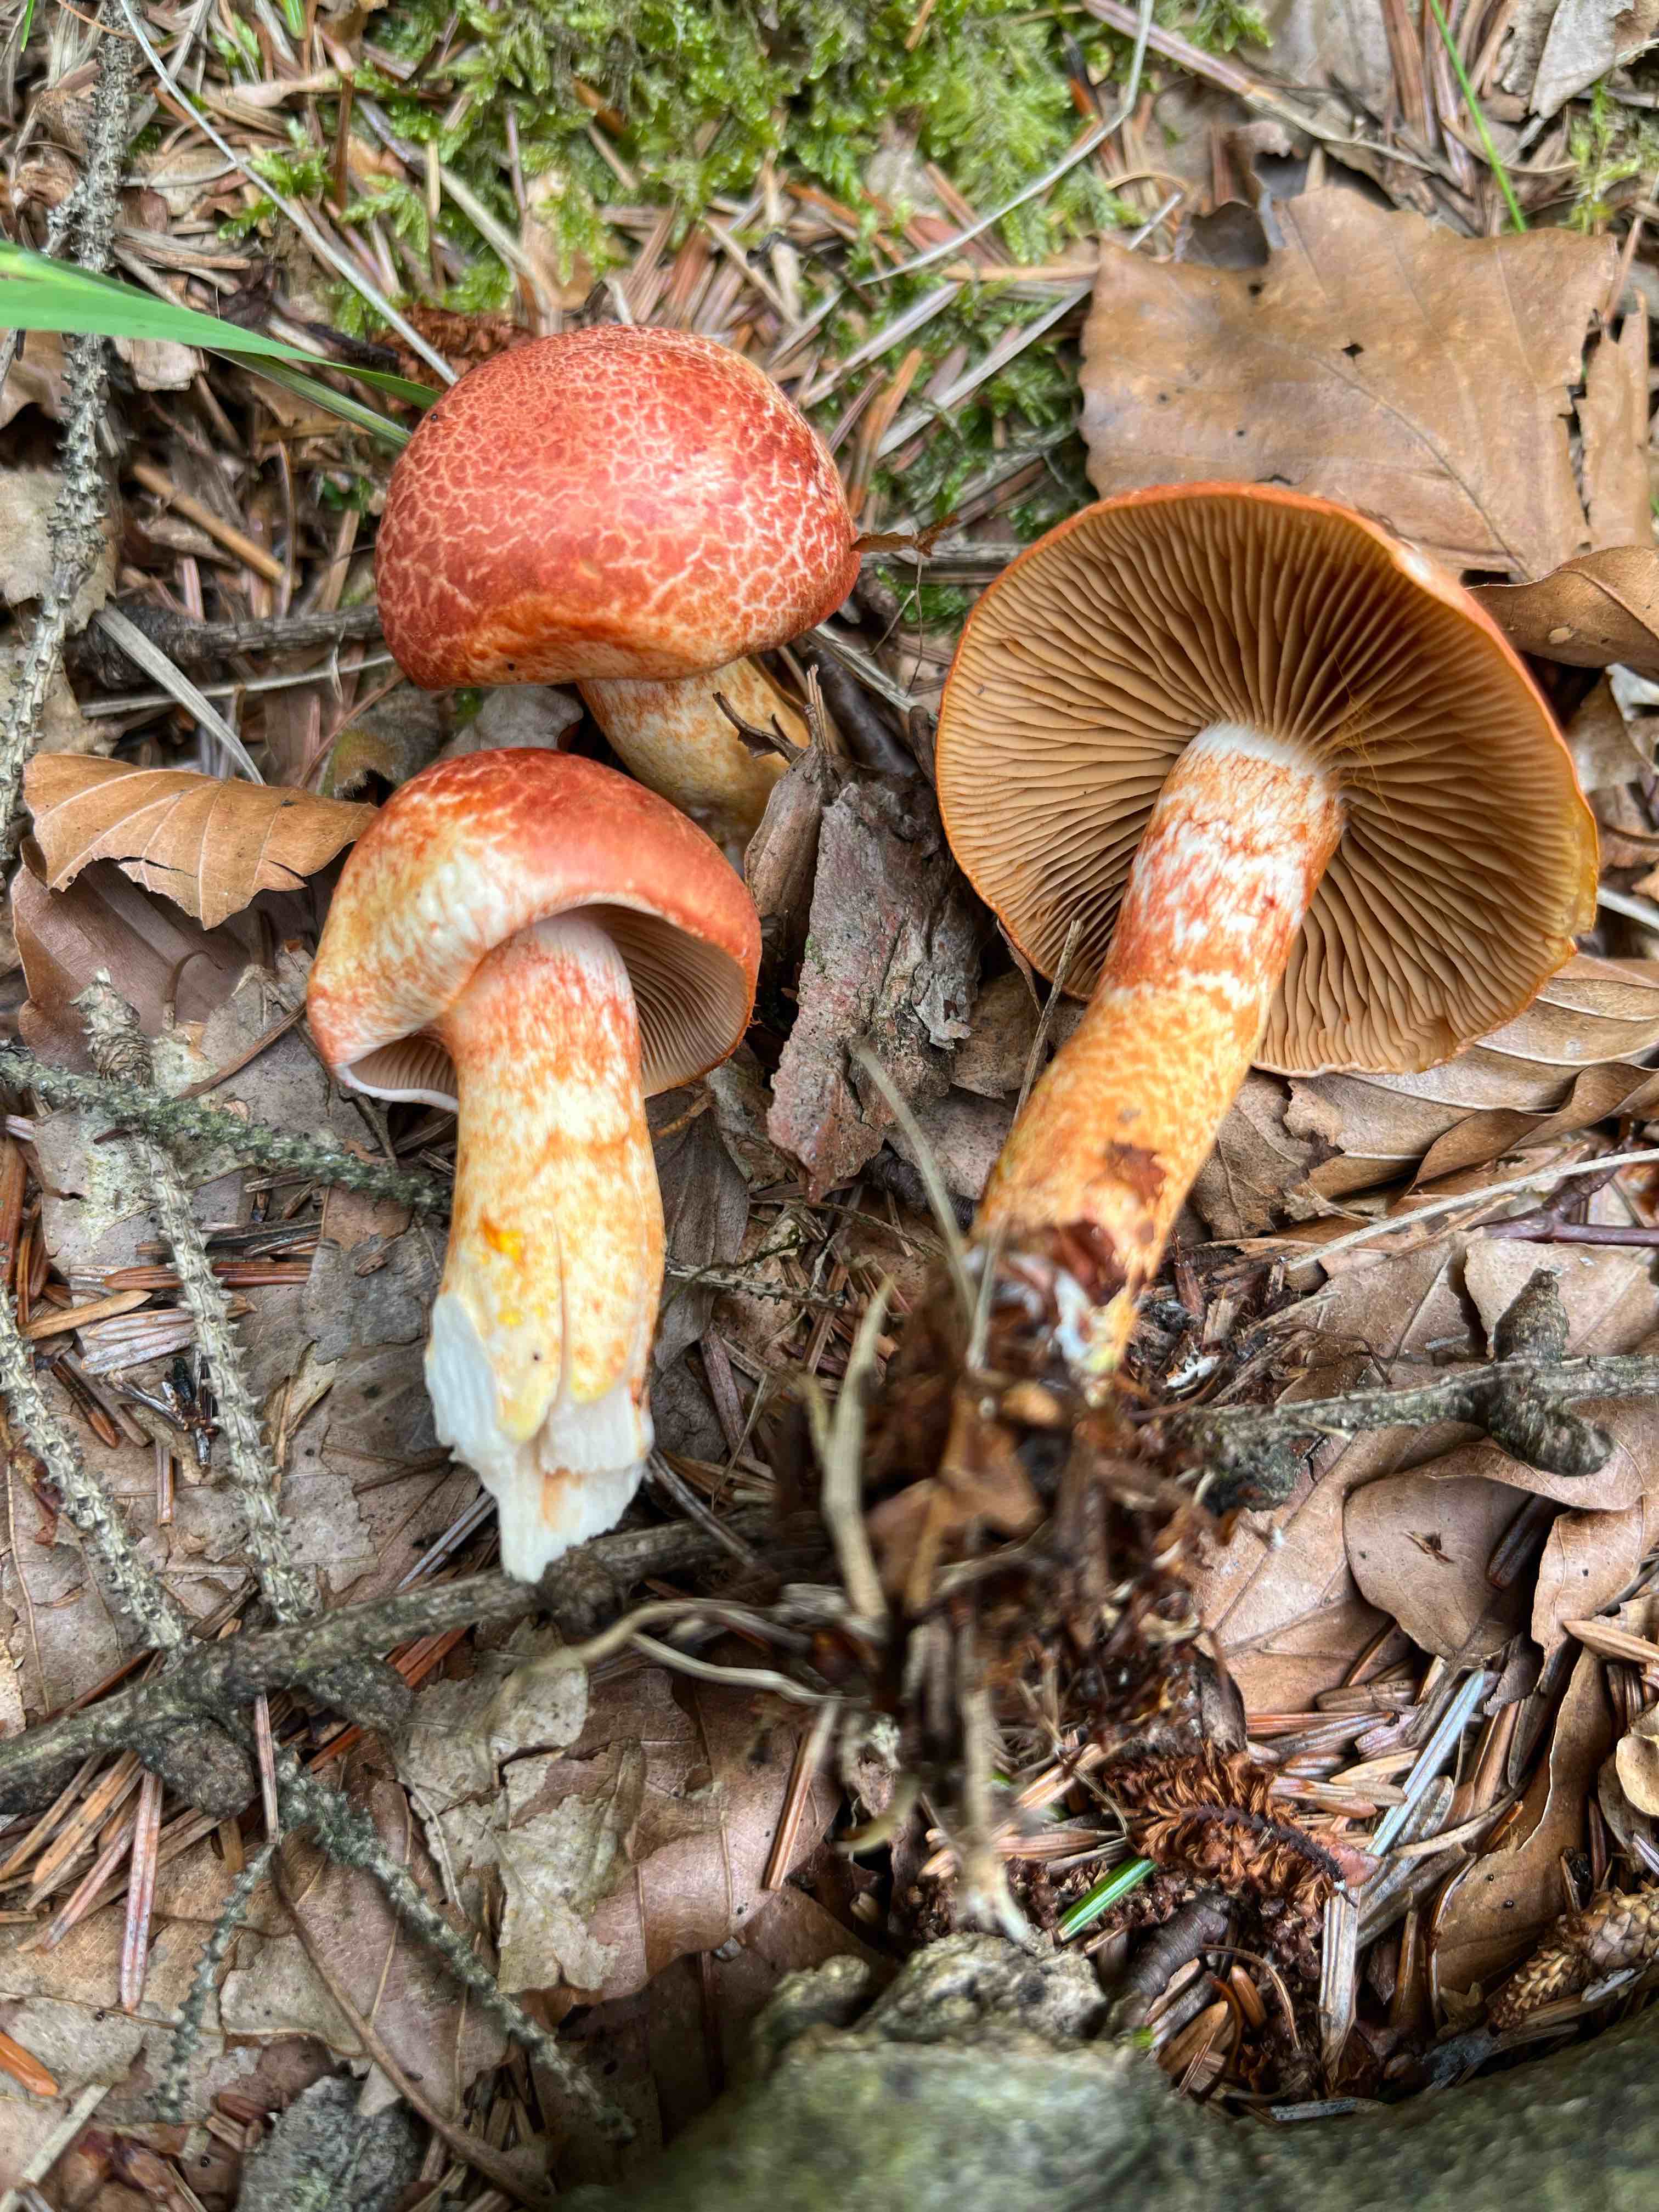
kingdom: Fungi
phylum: Basidiomycota
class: Agaricomycetes
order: Agaricales
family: Cortinariaceae
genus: Cortinarius
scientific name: Cortinarius bolaris
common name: cinnoberskællet slørhat
